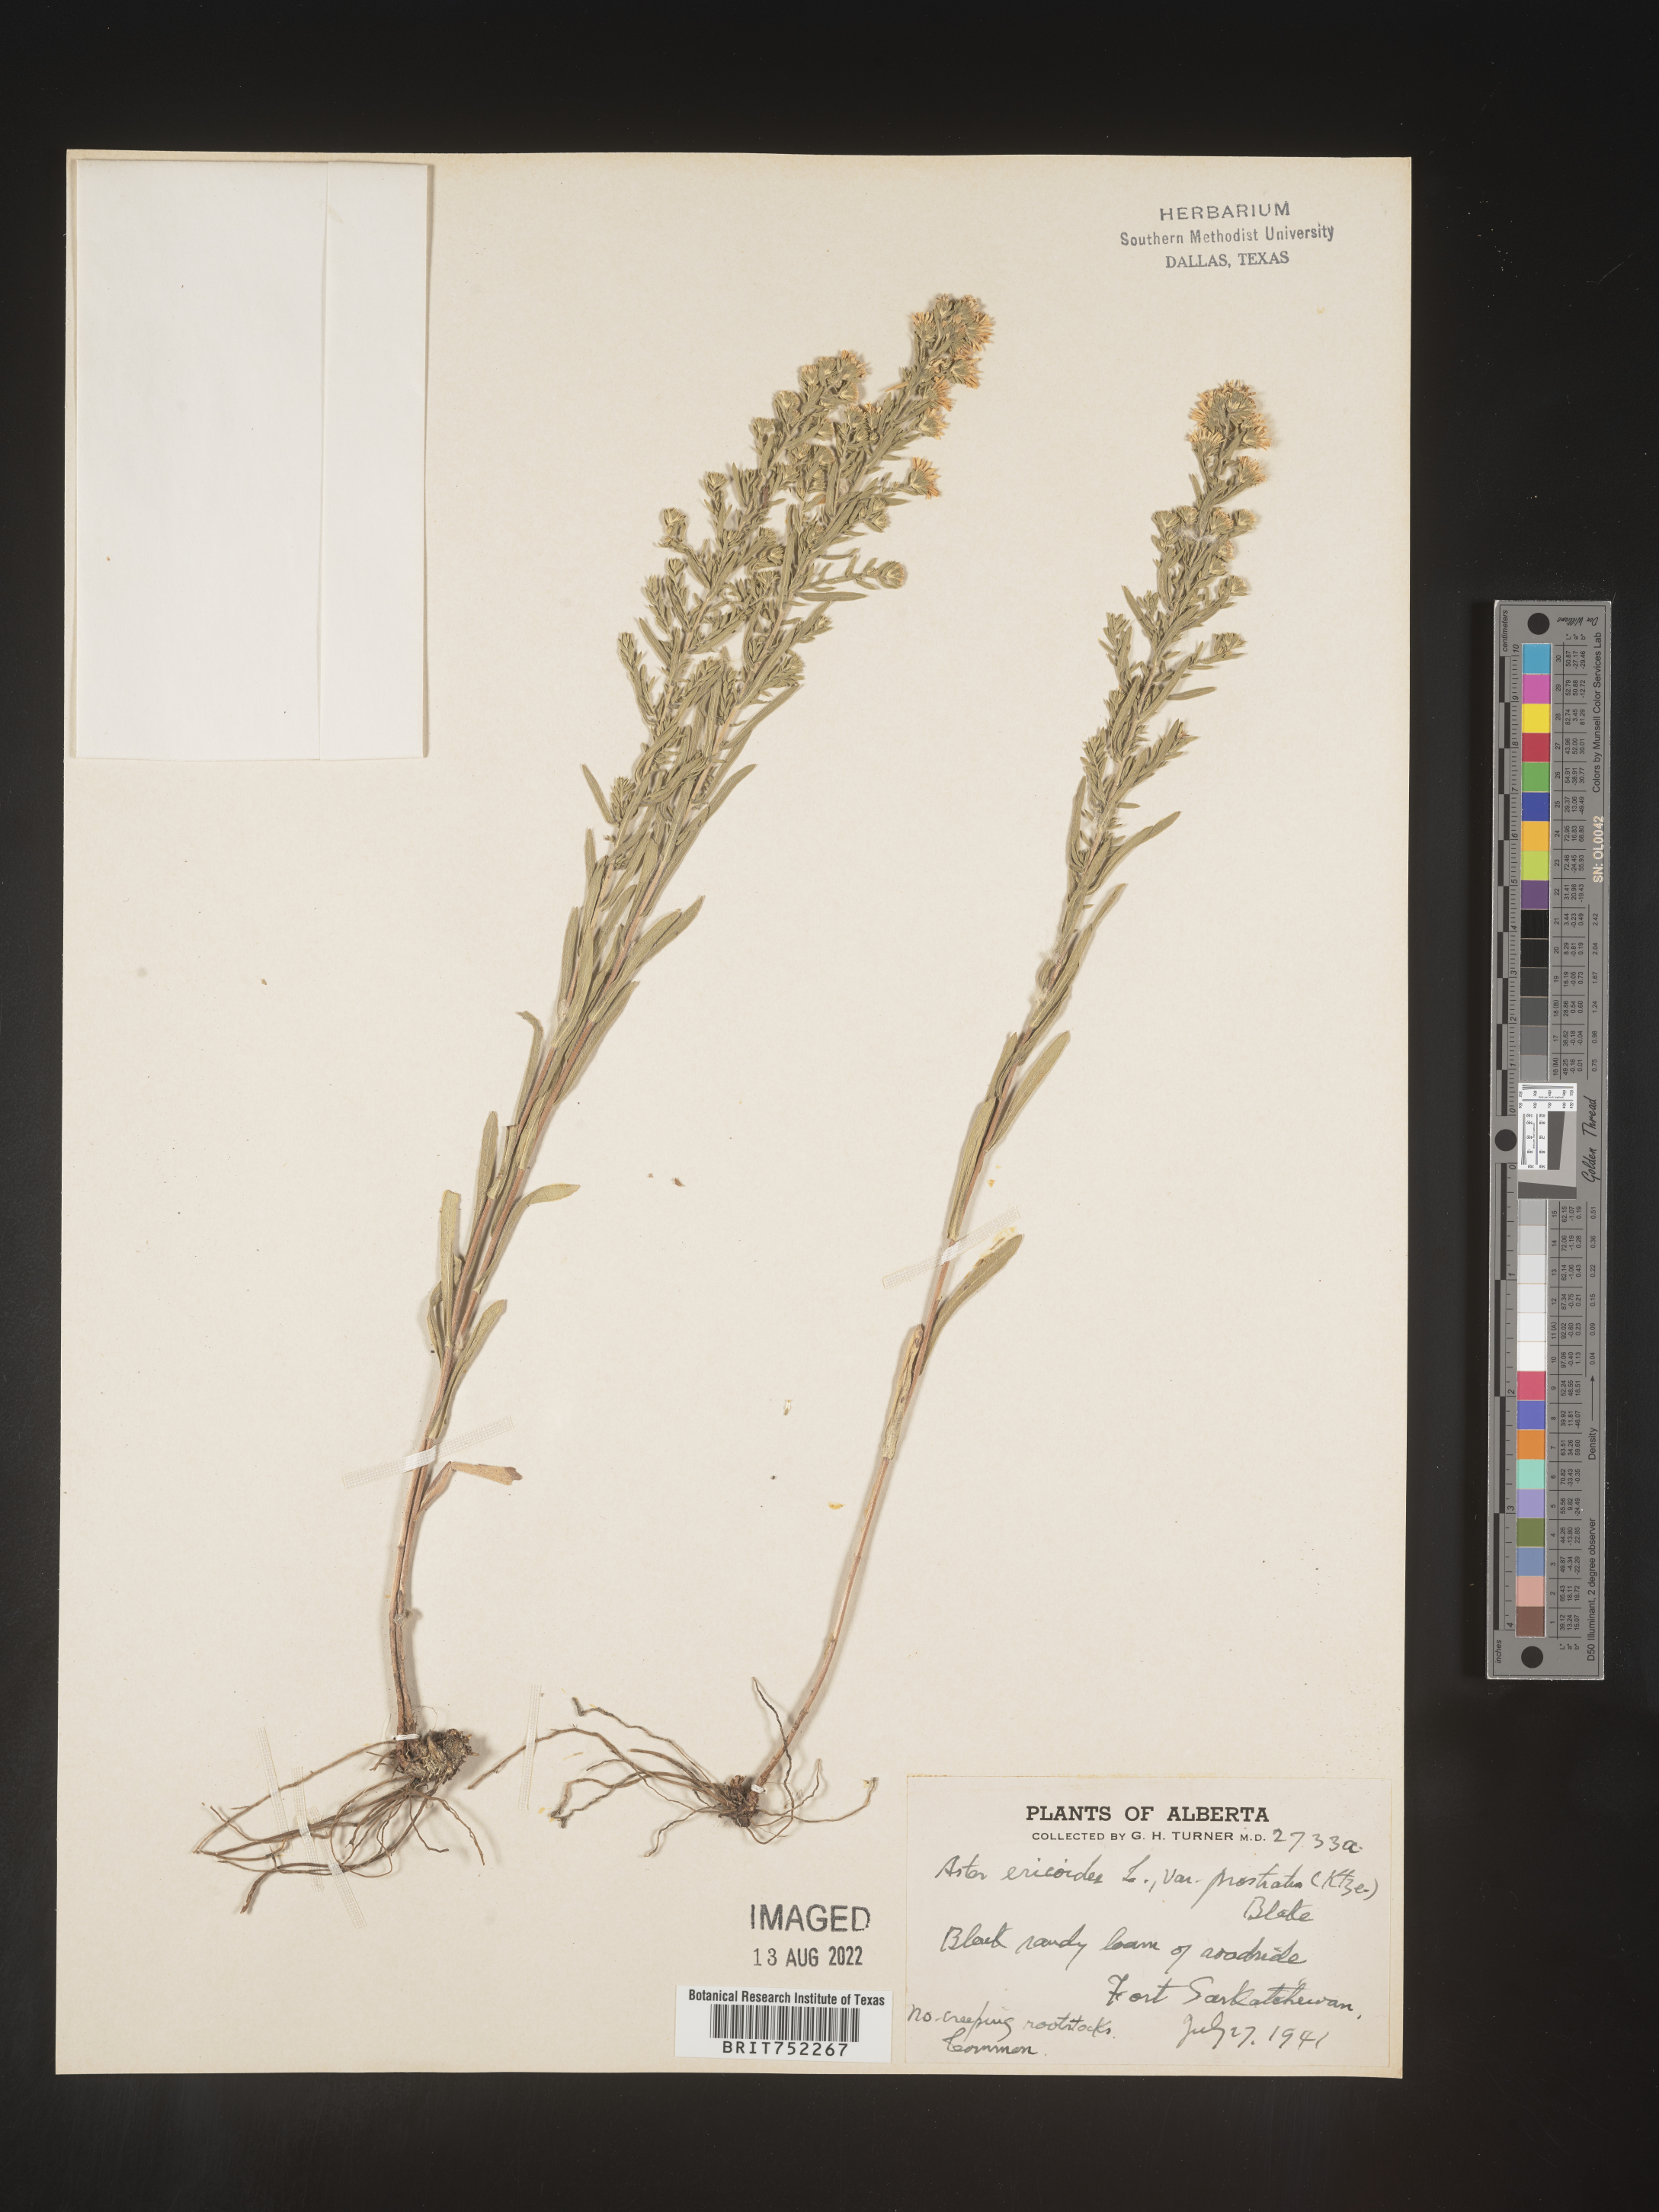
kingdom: Plantae
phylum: Tracheophyta
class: Magnoliopsida
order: Asterales
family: Asteraceae
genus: Symphyotrichum
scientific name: Symphyotrichum ericoides
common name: Heath aster
